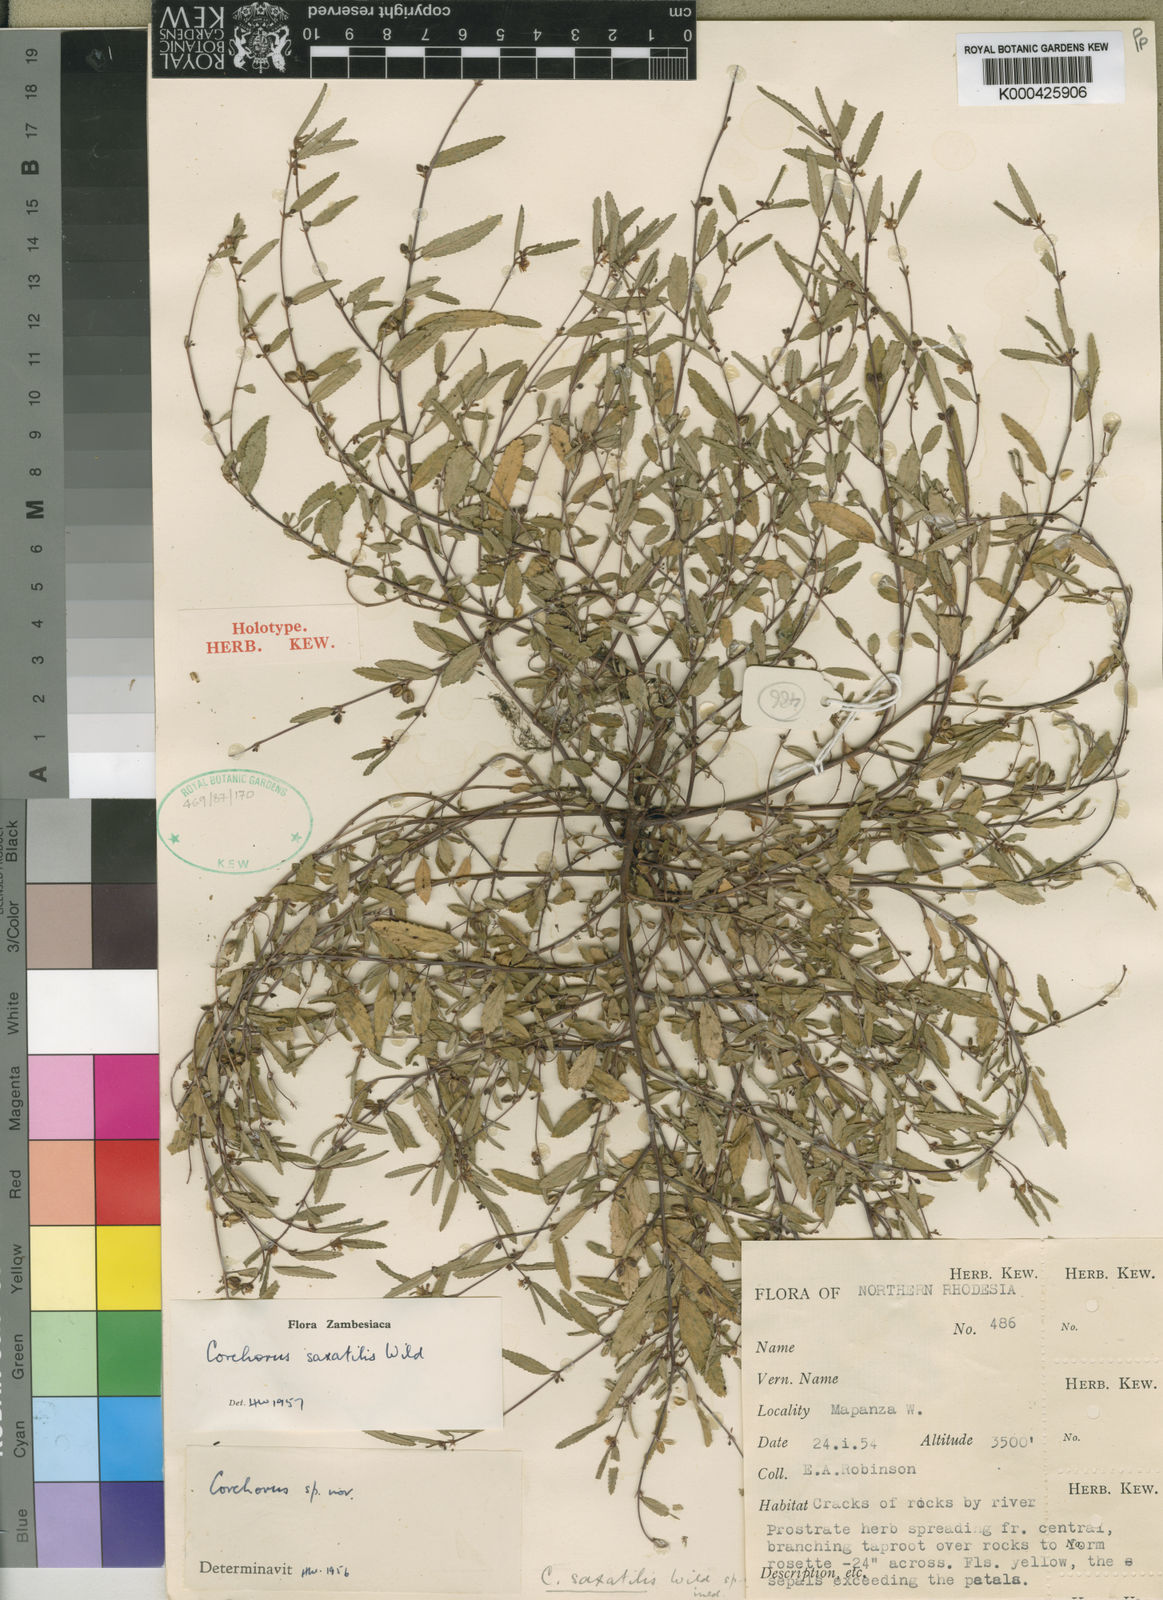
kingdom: Plantae
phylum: Tracheophyta
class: Magnoliopsida
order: Malvales
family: Malvaceae
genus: Corchorus
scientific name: Corchorus saxatilis
